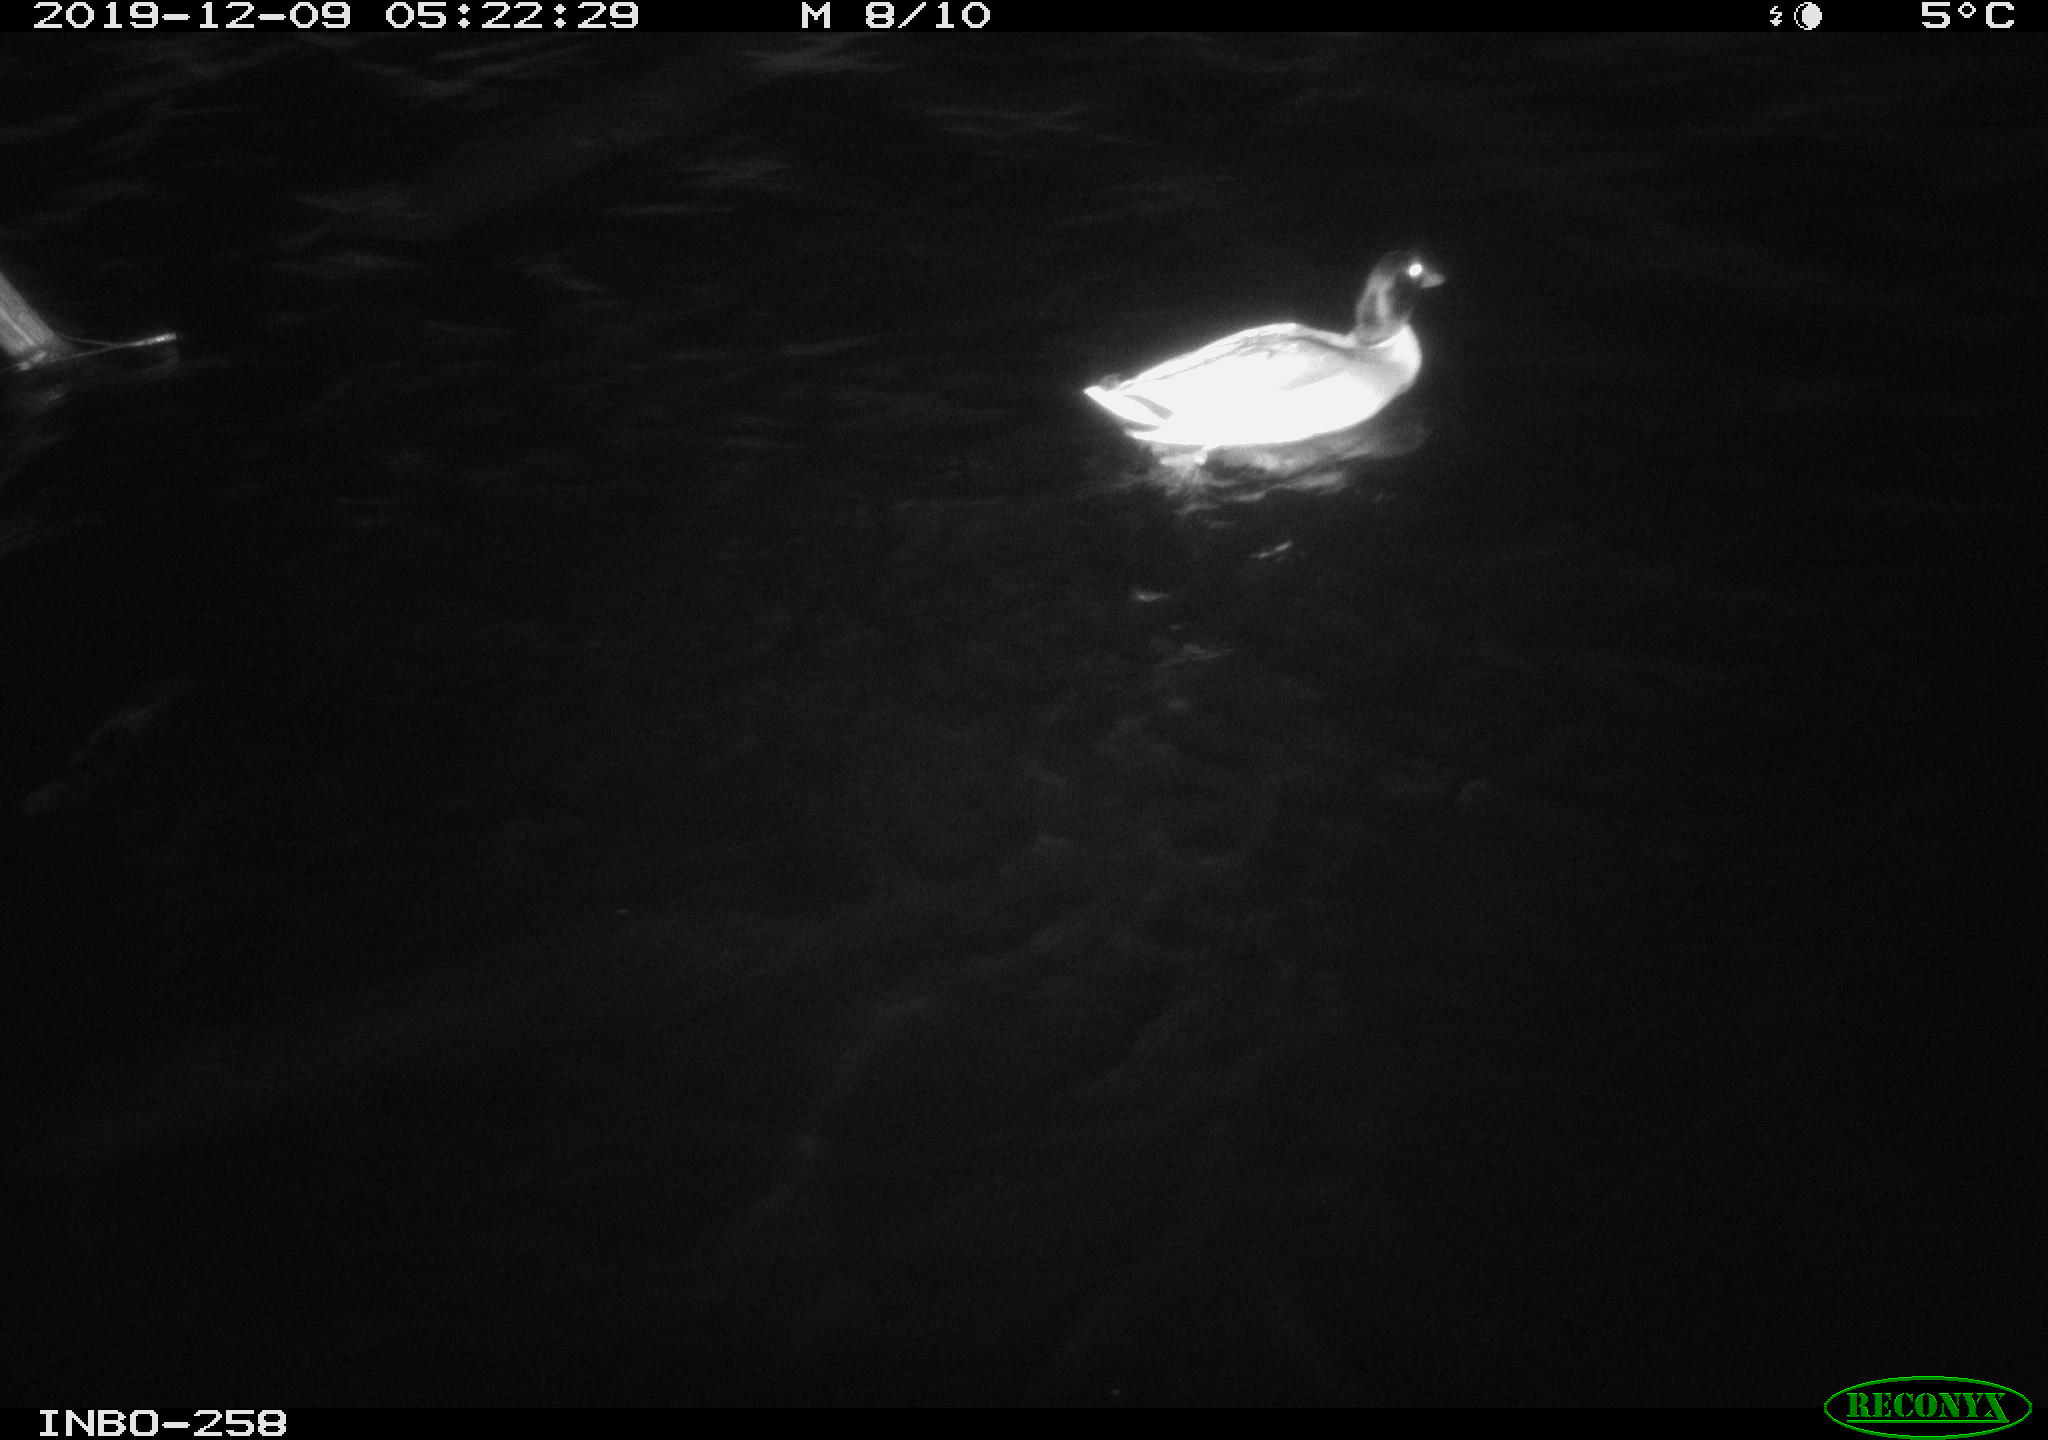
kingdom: Animalia
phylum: Chordata
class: Aves
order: Anseriformes
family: Anatidae
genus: Anas
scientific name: Anas platyrhynchos
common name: Mallard
